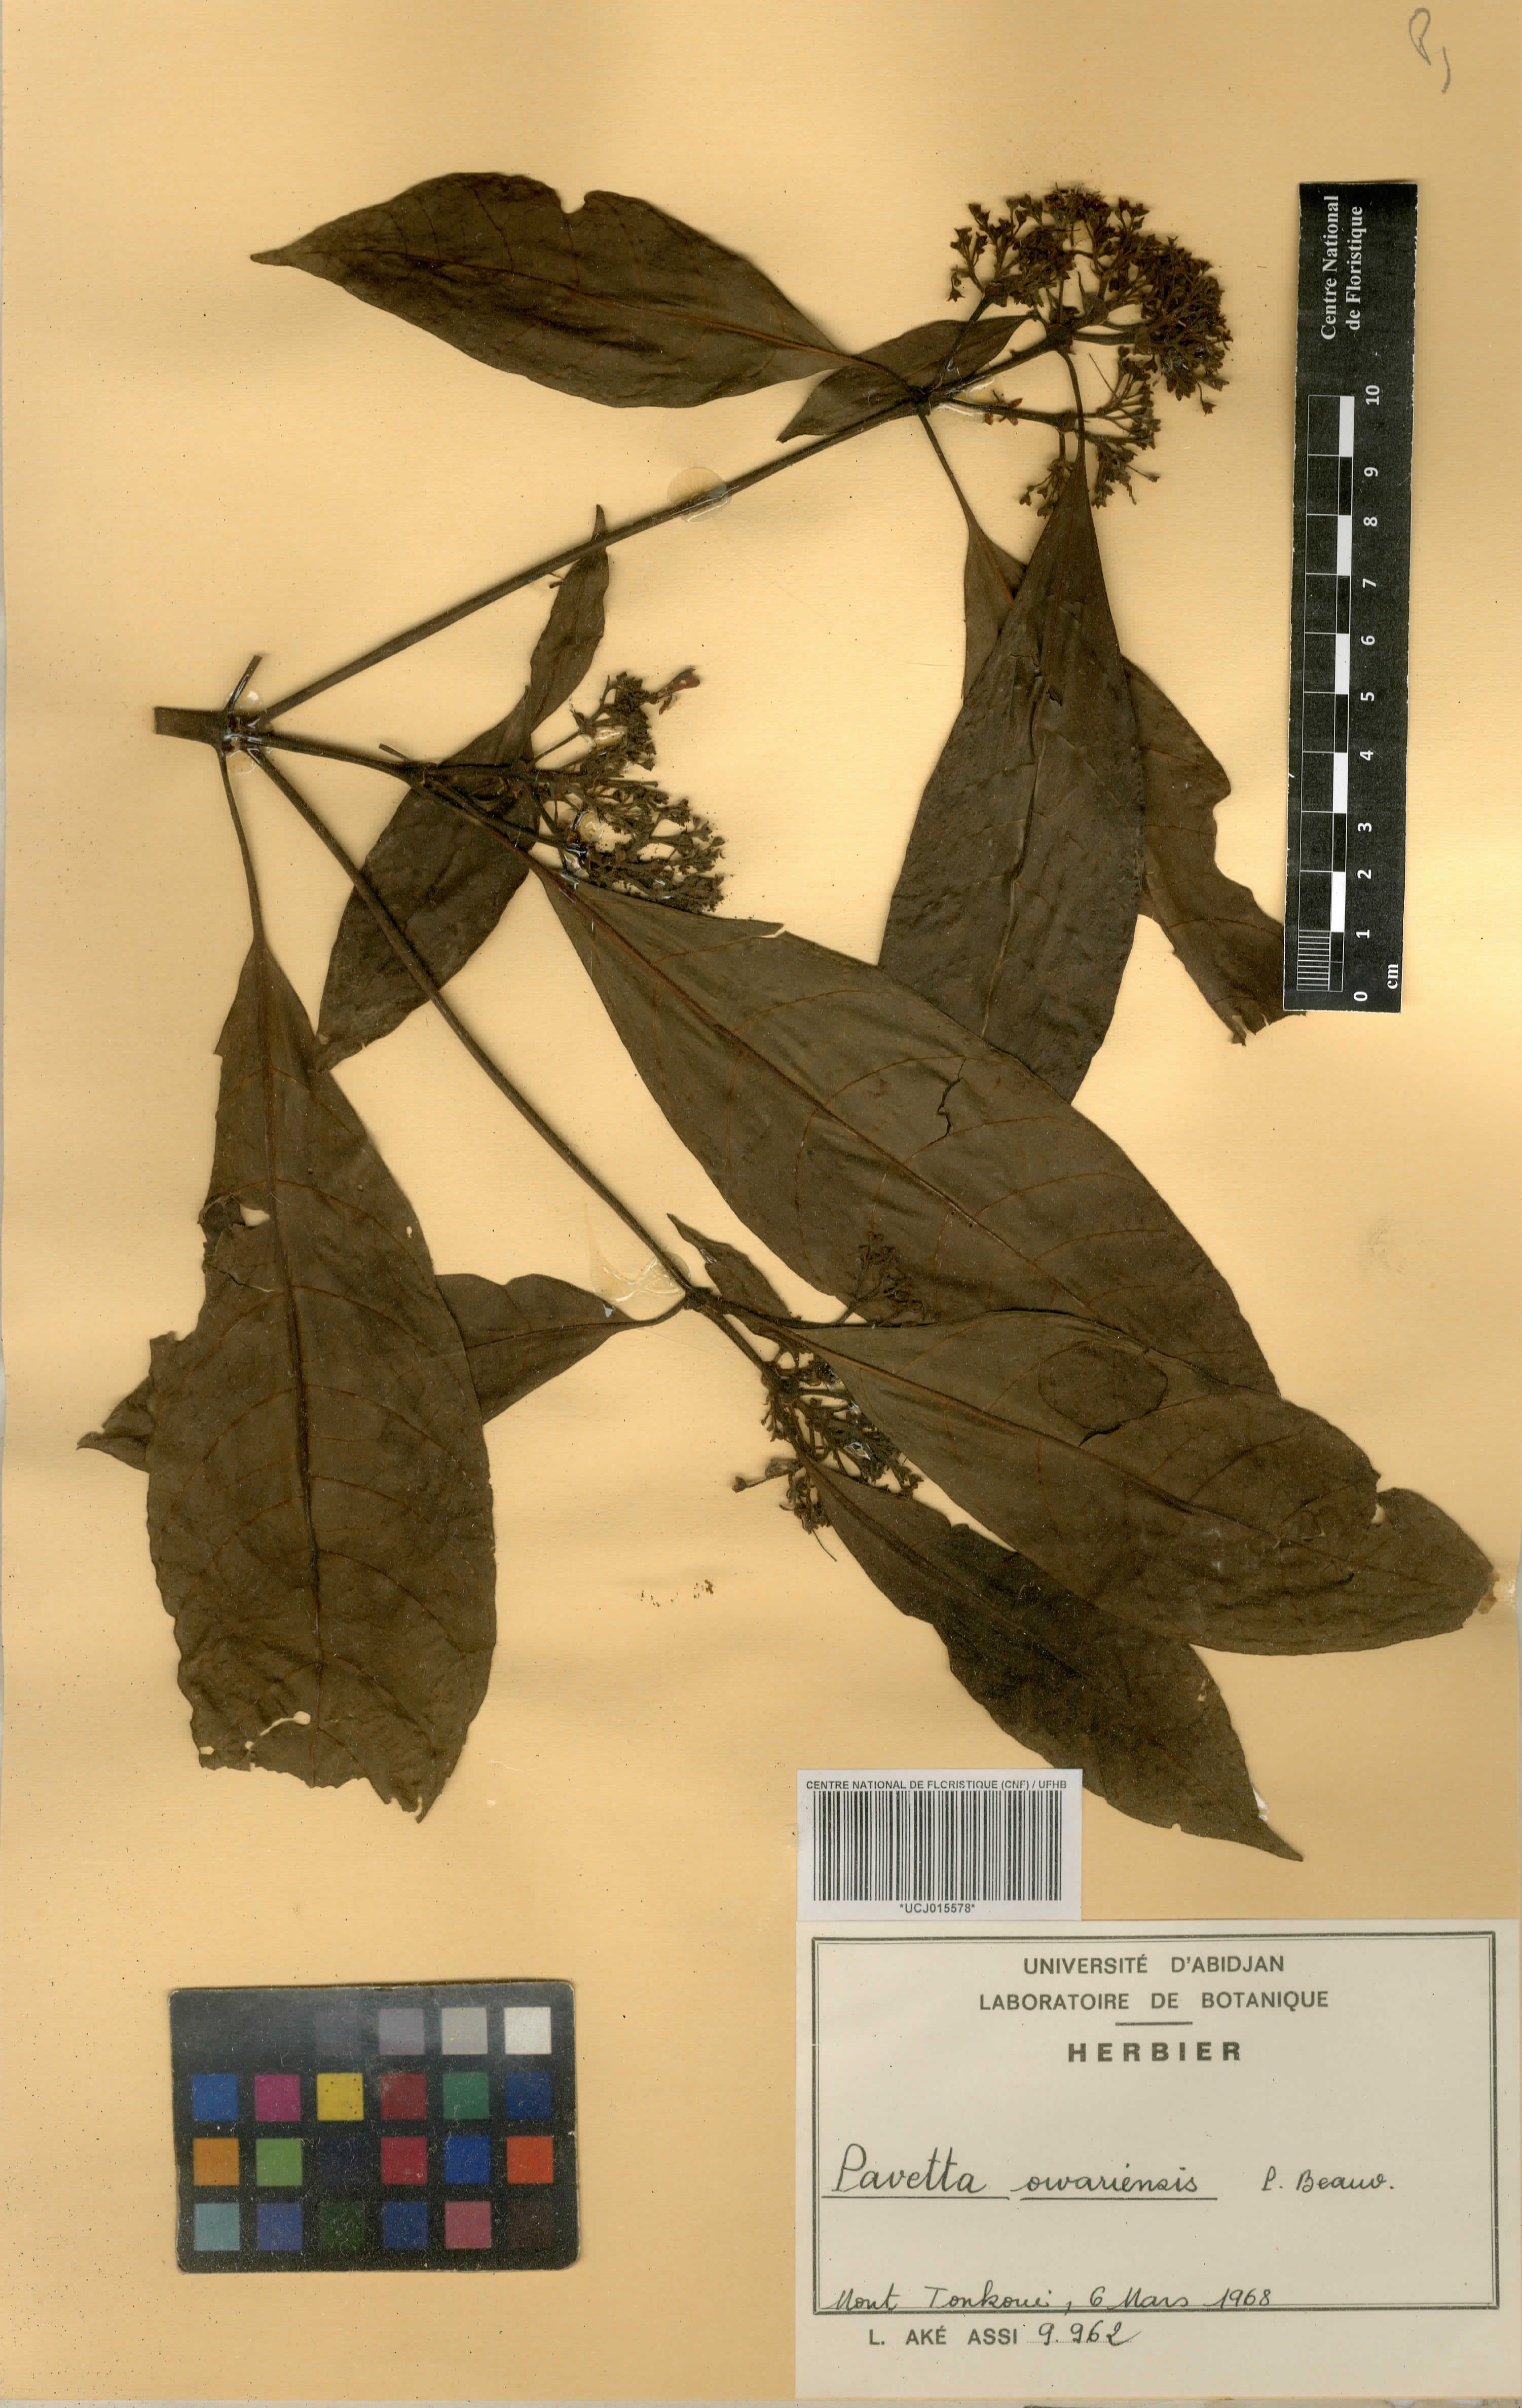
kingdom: Plantae
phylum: Tracheophyta
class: Magnoliopsida
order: Gentianales
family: Rubiaceae
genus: Pavetta
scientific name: Pavetta owariensis
